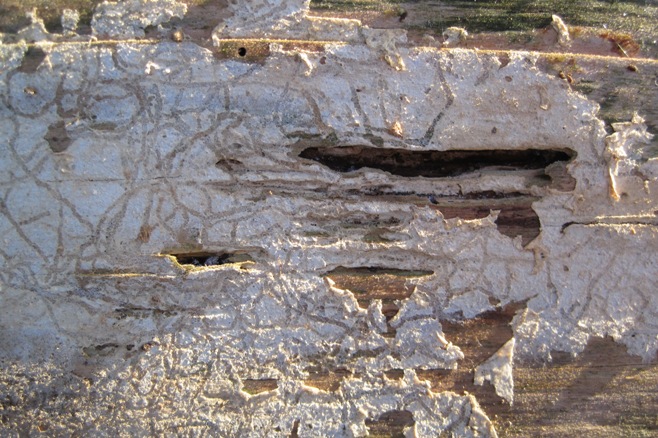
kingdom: Fungi
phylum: Basidiomycota
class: Agaricomycetes
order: Cantharellales
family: Botryobasidiaceae
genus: Botryobasidium
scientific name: Botryobasidium subcoronatum
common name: almindelig spindhinde
